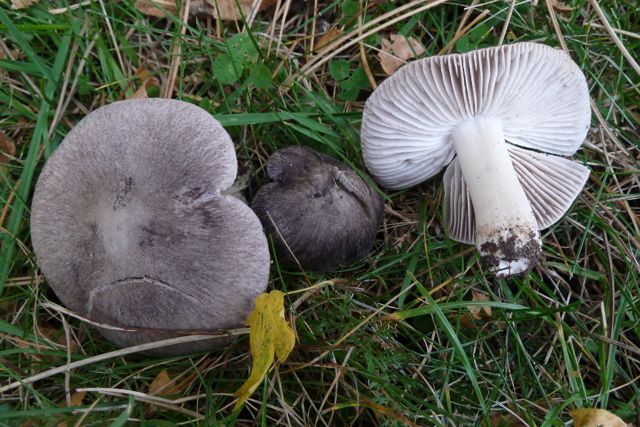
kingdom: Fungi
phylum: Basidiomycota
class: Agaricomycetes
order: Agaricales
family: Tricholomataceae
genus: Tricholoma
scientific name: Tricholoma terreum
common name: jordfarvet ridderhat
